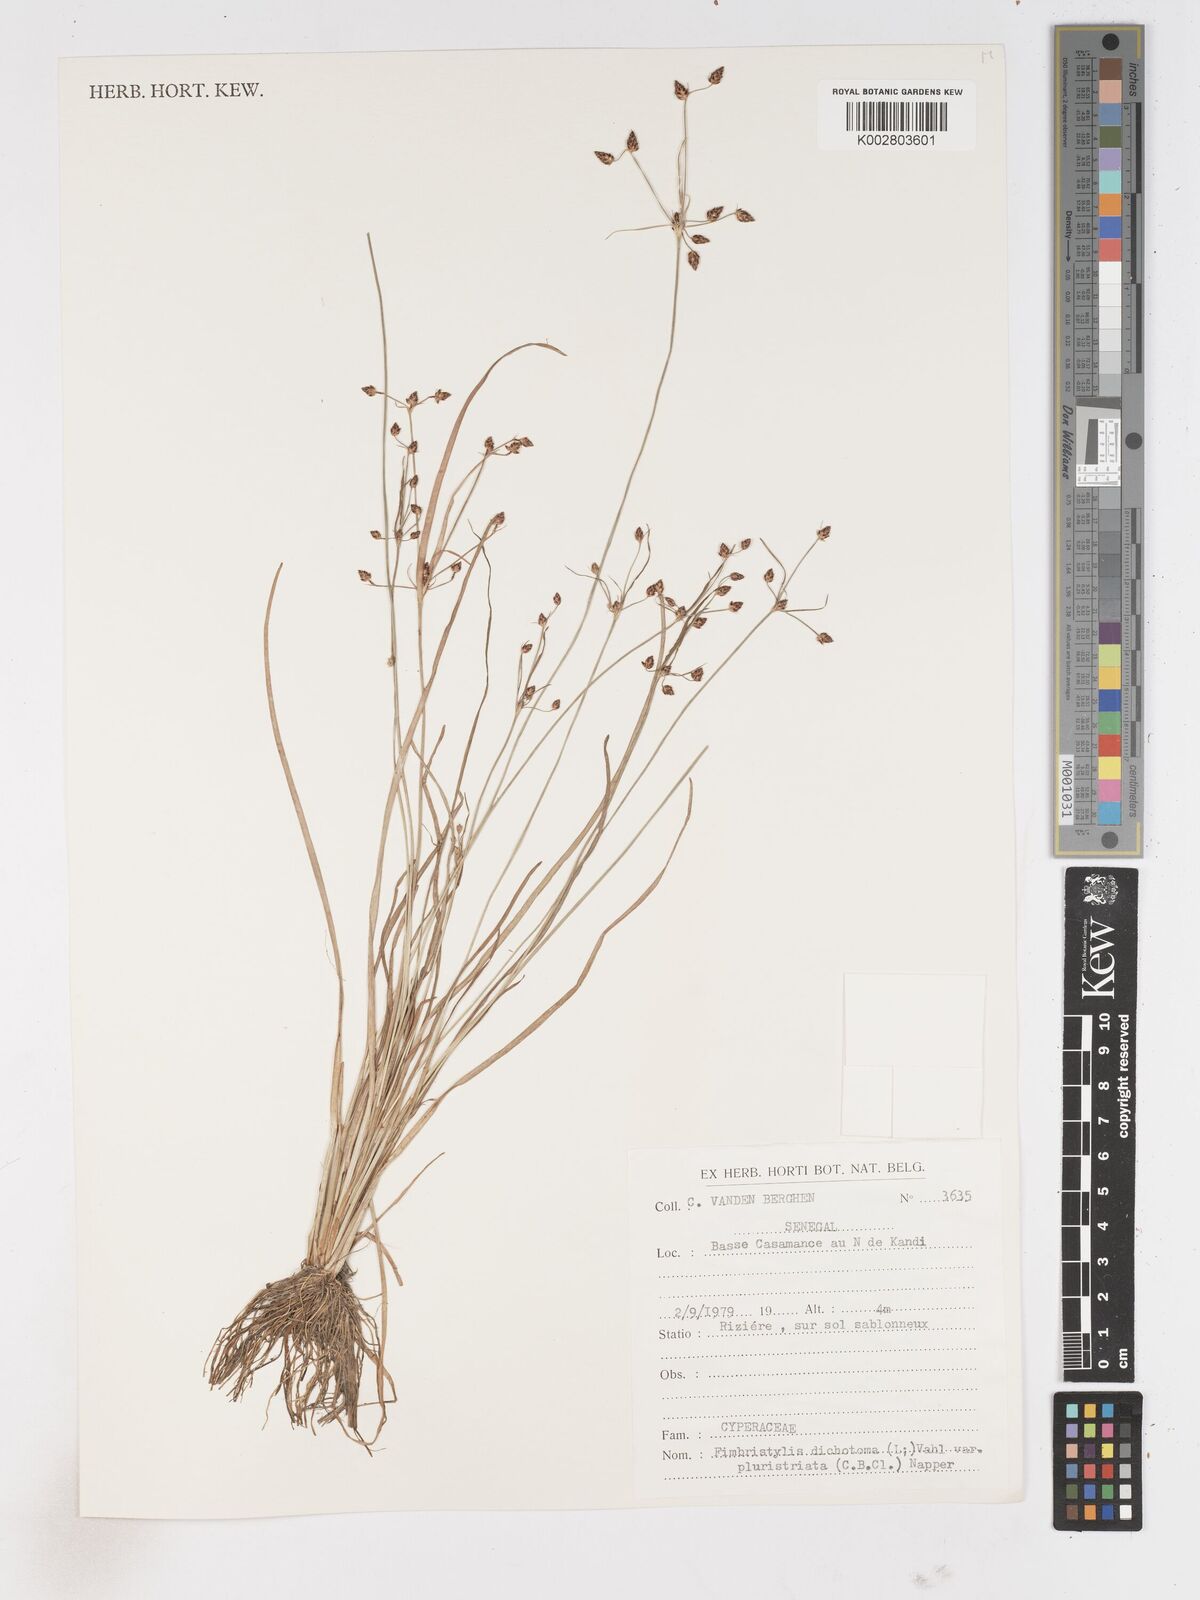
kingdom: Plantae
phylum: Tracheophyta
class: Liliopsida
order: Poales
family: Cyperaceae
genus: Fimbristylis
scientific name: Fimbristylis dichotoma
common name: Forked fimbry
